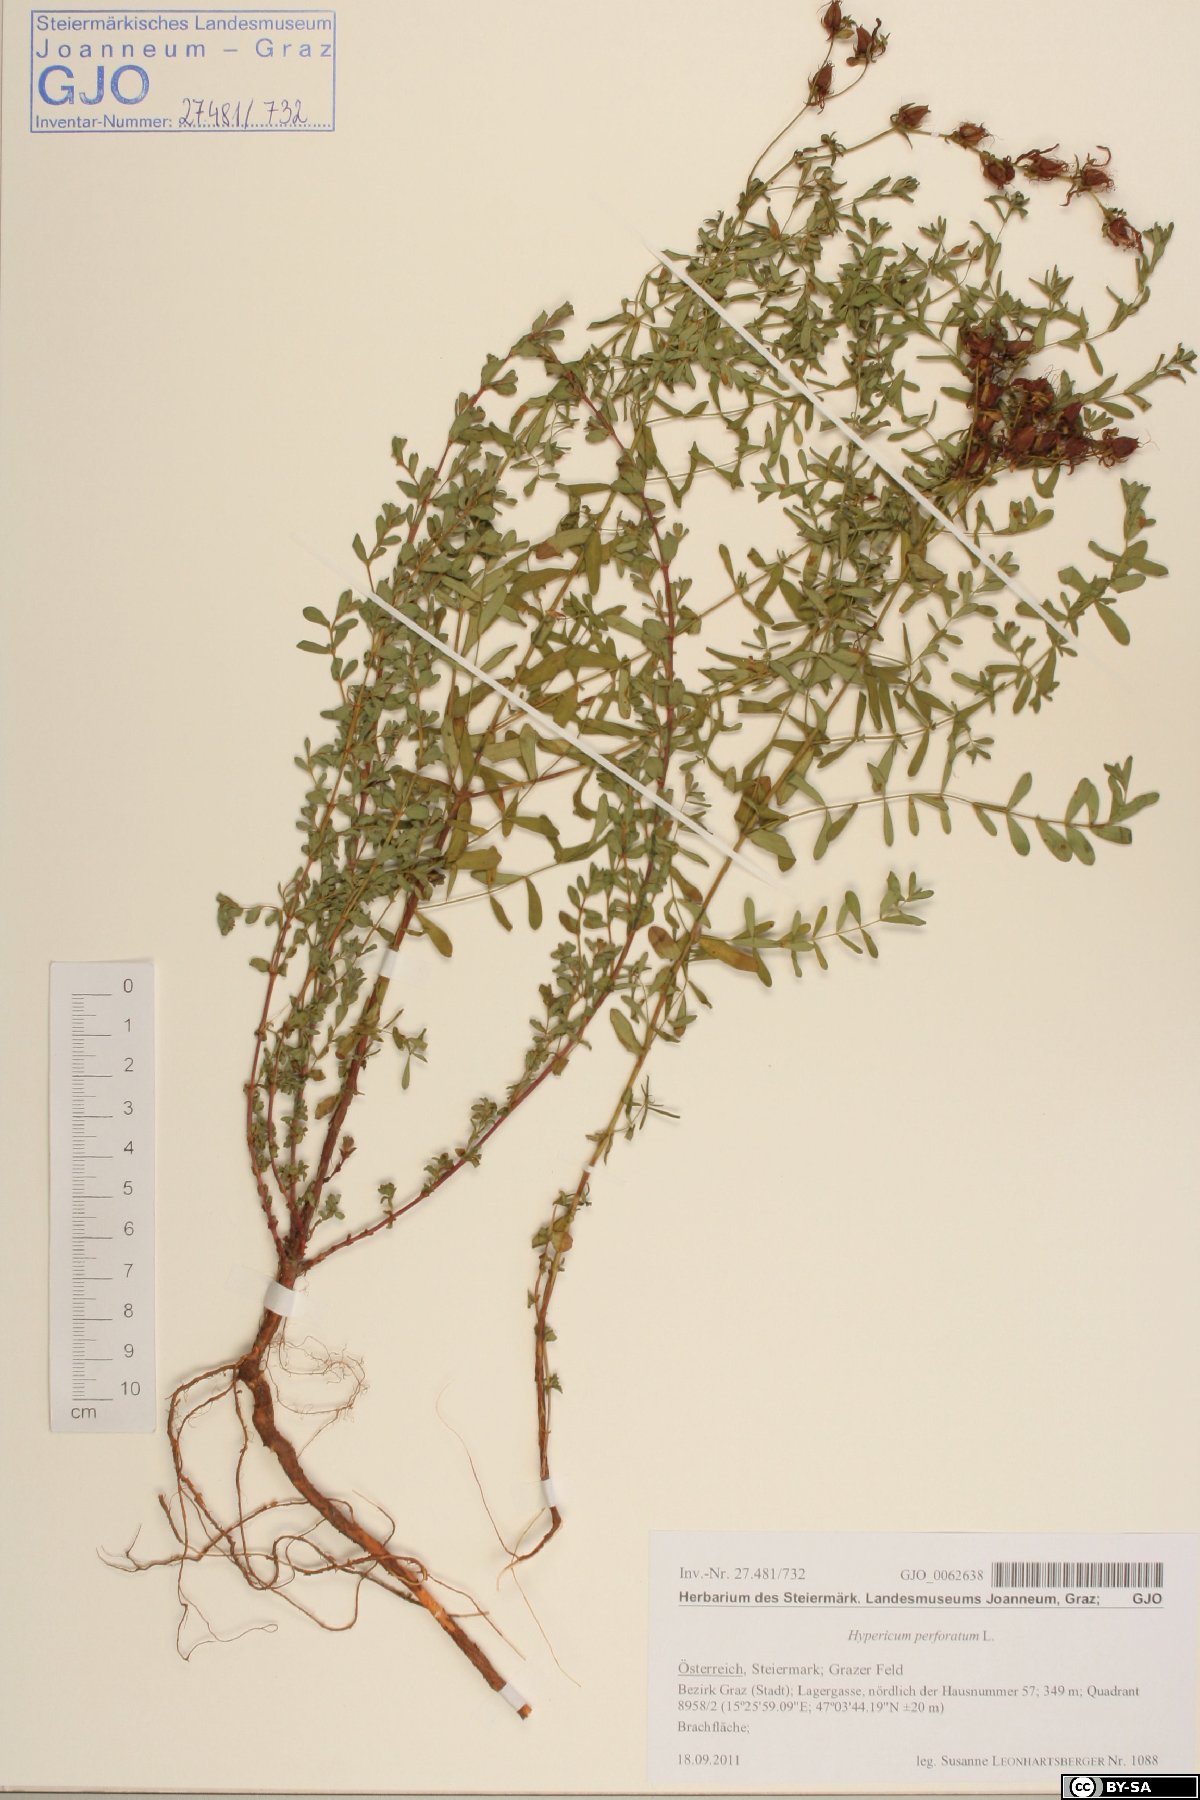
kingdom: Plantae
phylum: Tracheophyta
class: Magnoliopsida
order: Malpighiales
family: Hypericaceae
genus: Hypericum
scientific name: Hypericum perforatum
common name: Common st. johnswort
